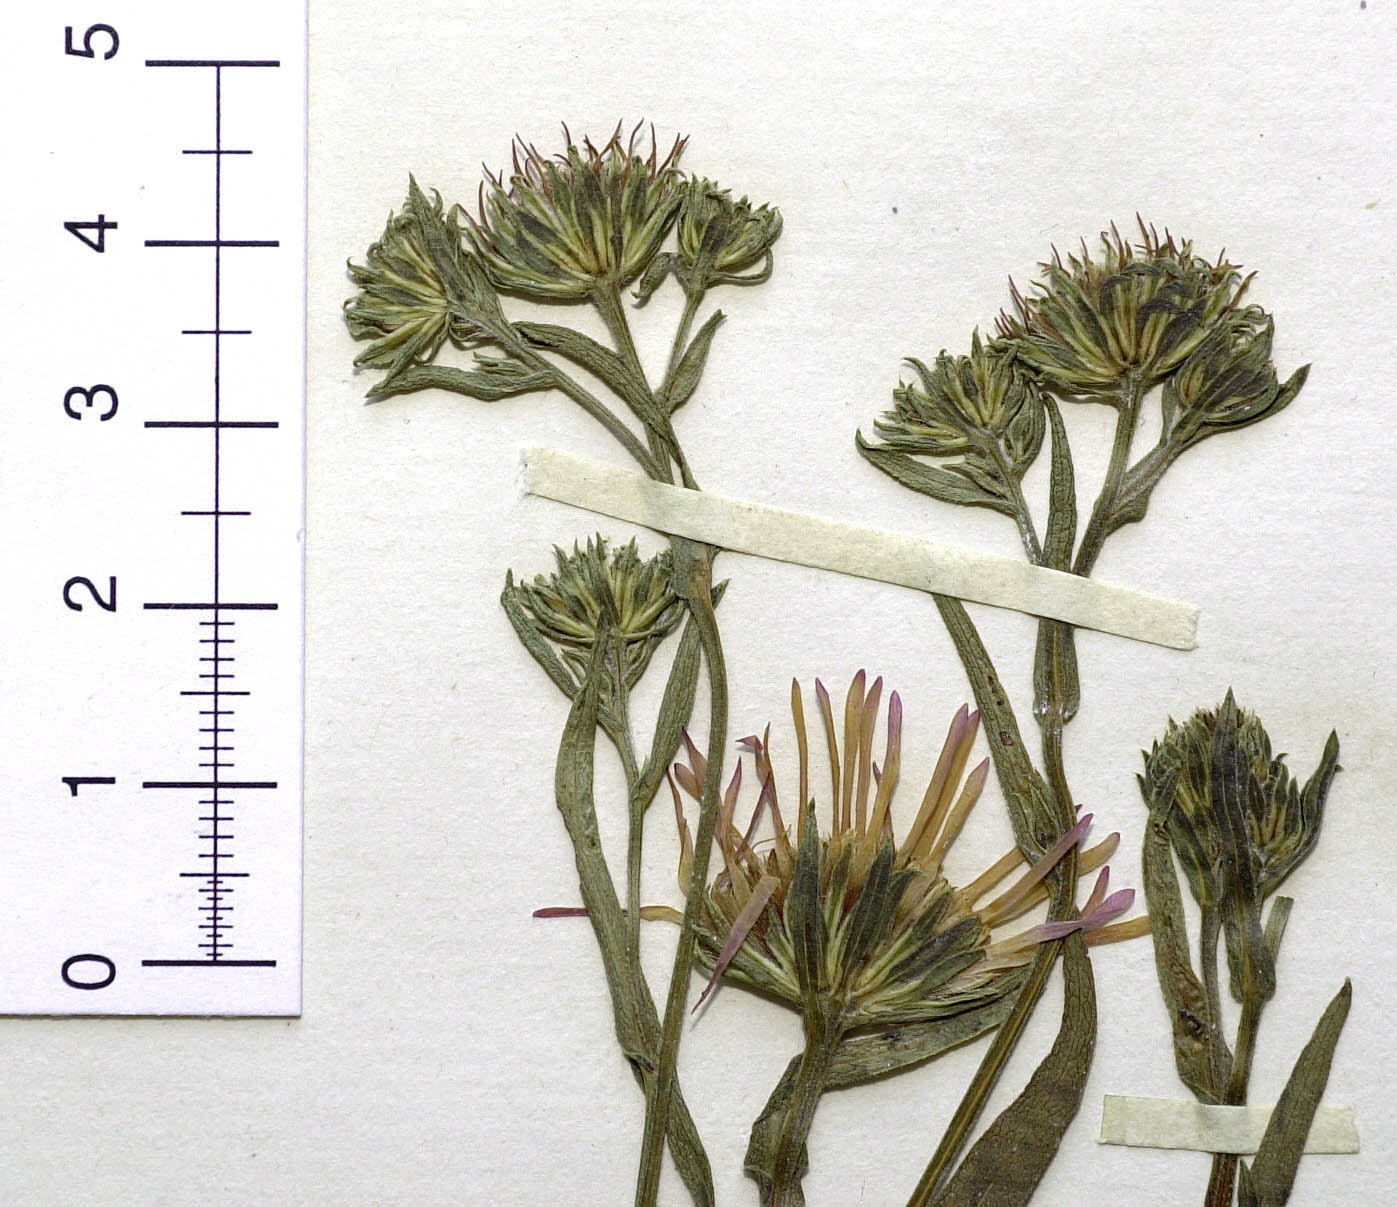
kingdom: Plantae
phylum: Tracheophyta
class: Magnoliopsida
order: Asterales
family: Asteraceae
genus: Symphyotrichum
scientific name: Symphyotrichum spathulatum
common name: Western mountain aster
